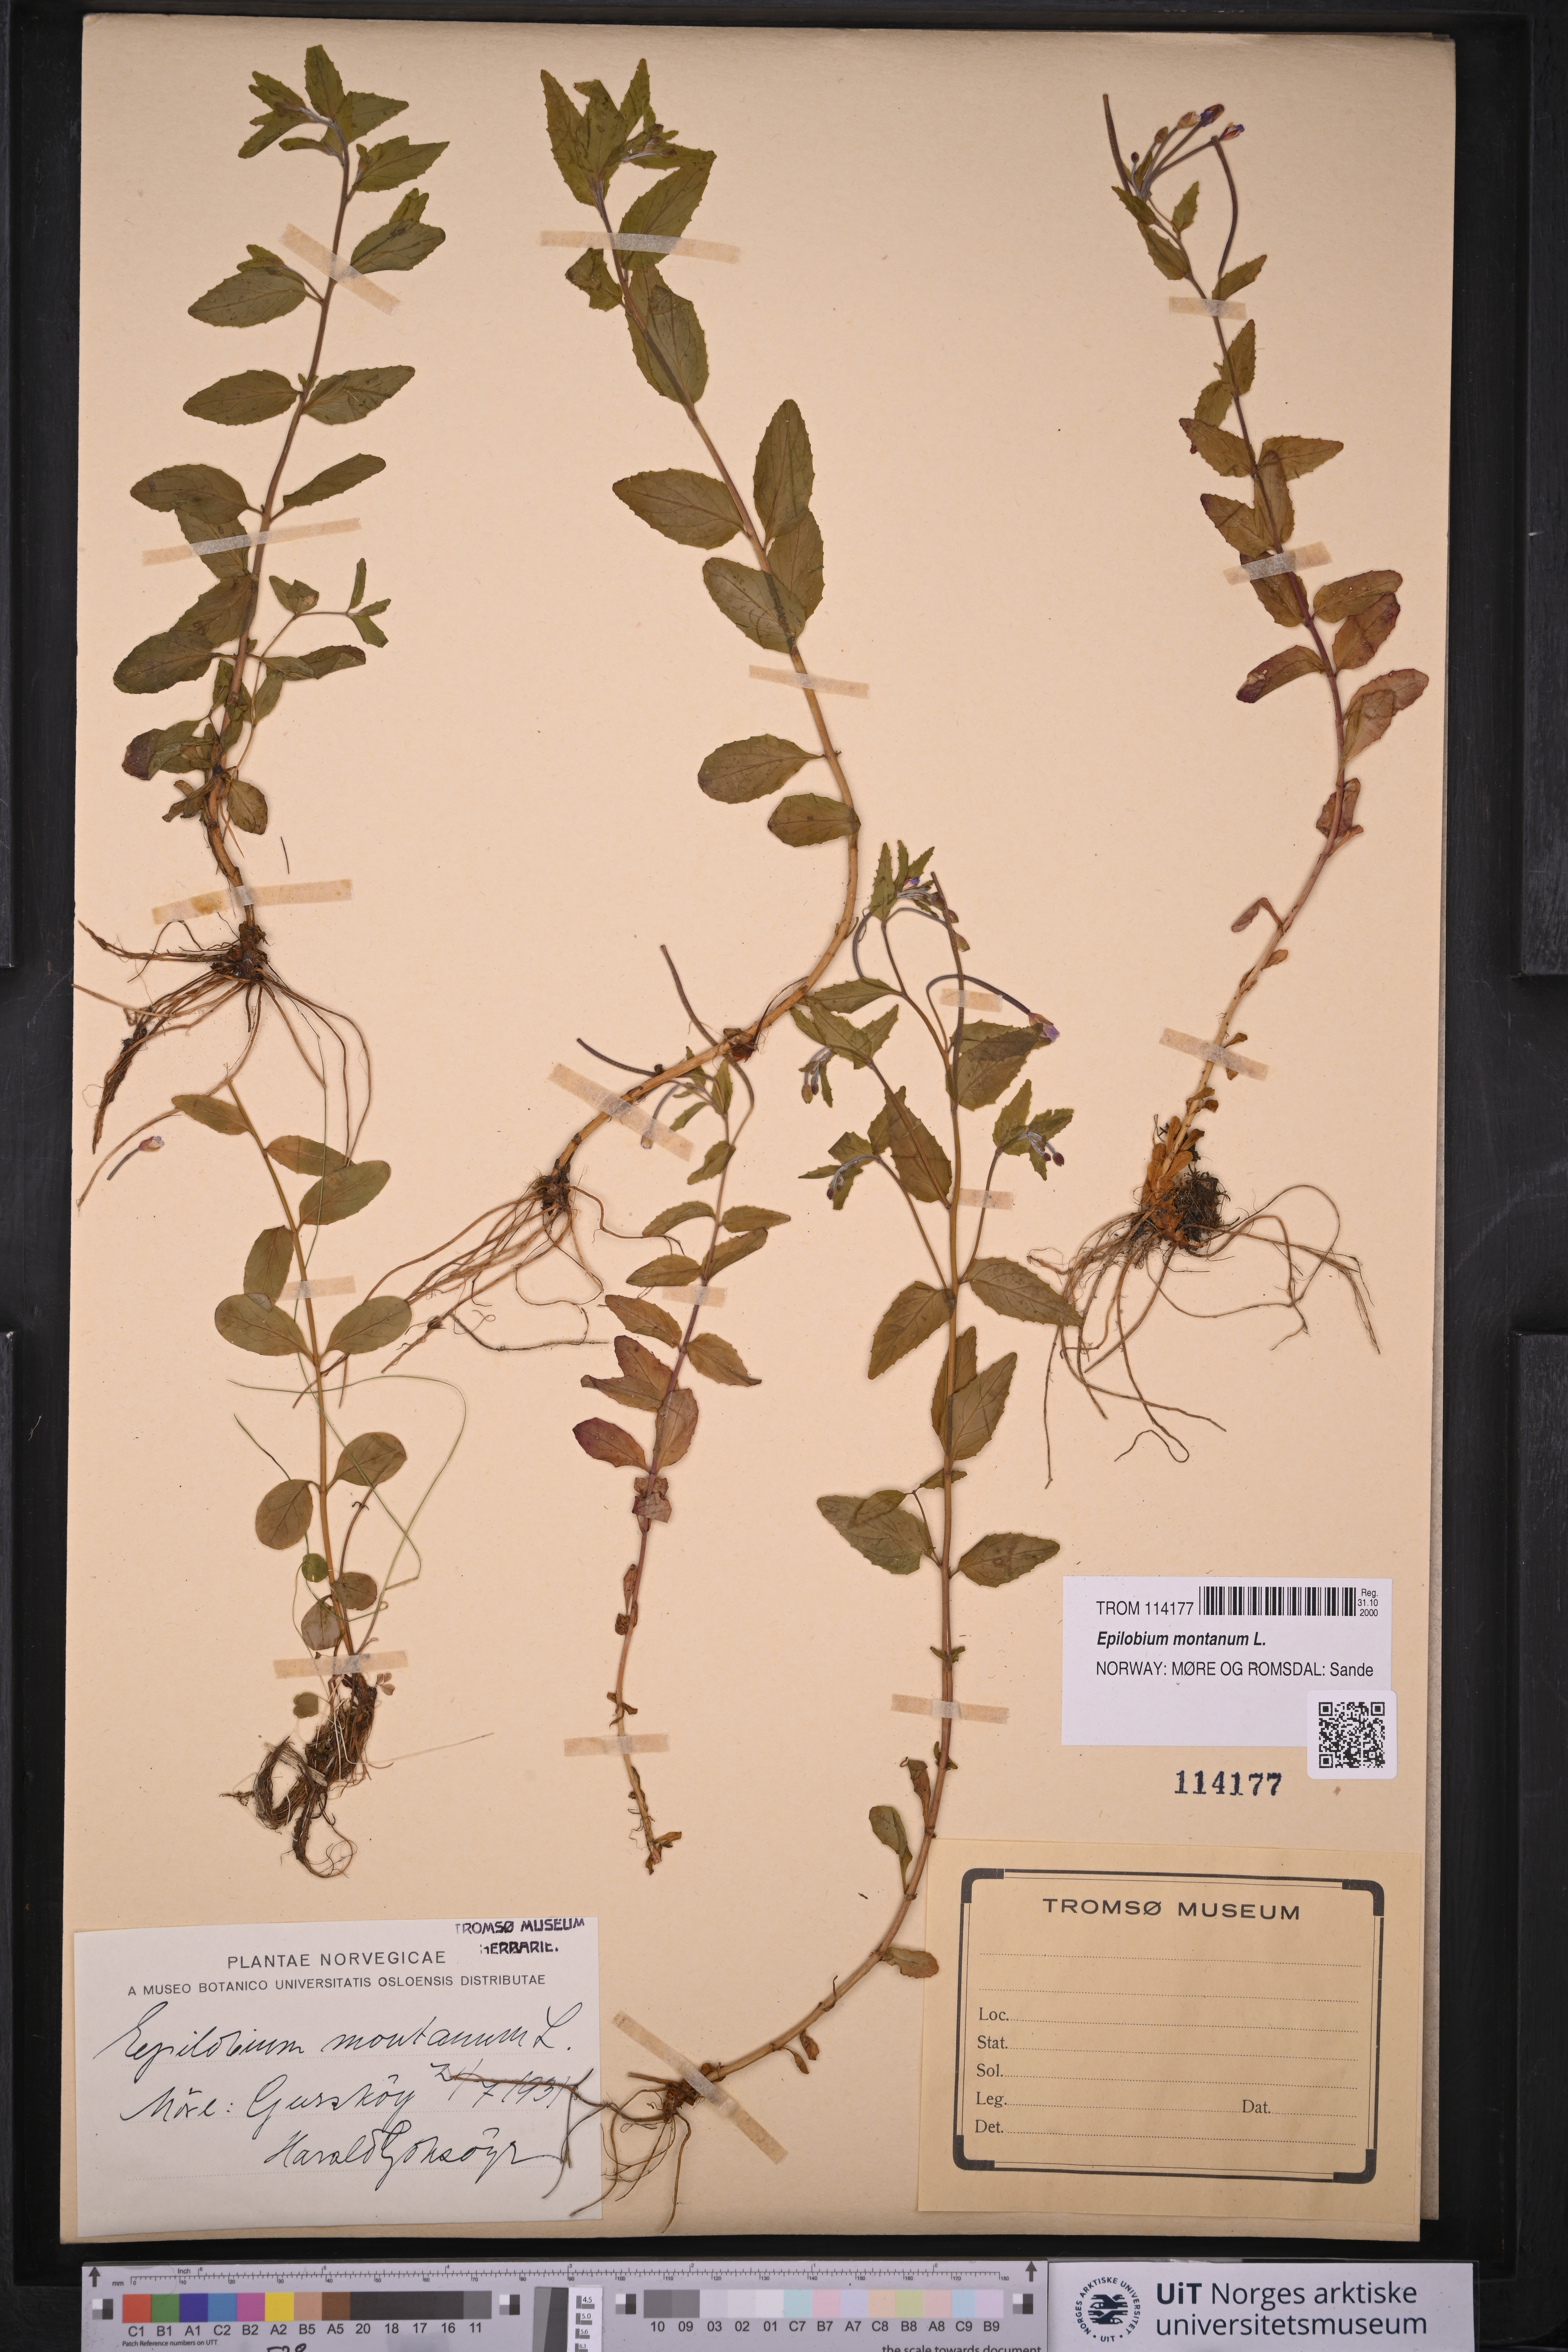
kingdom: Plantae
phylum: Tracheophyta
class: Magnoliopsida
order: Myrtales
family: Onagraceae
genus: Epilobium
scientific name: Epilobium montanum
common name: Broad-leaved willowherb
